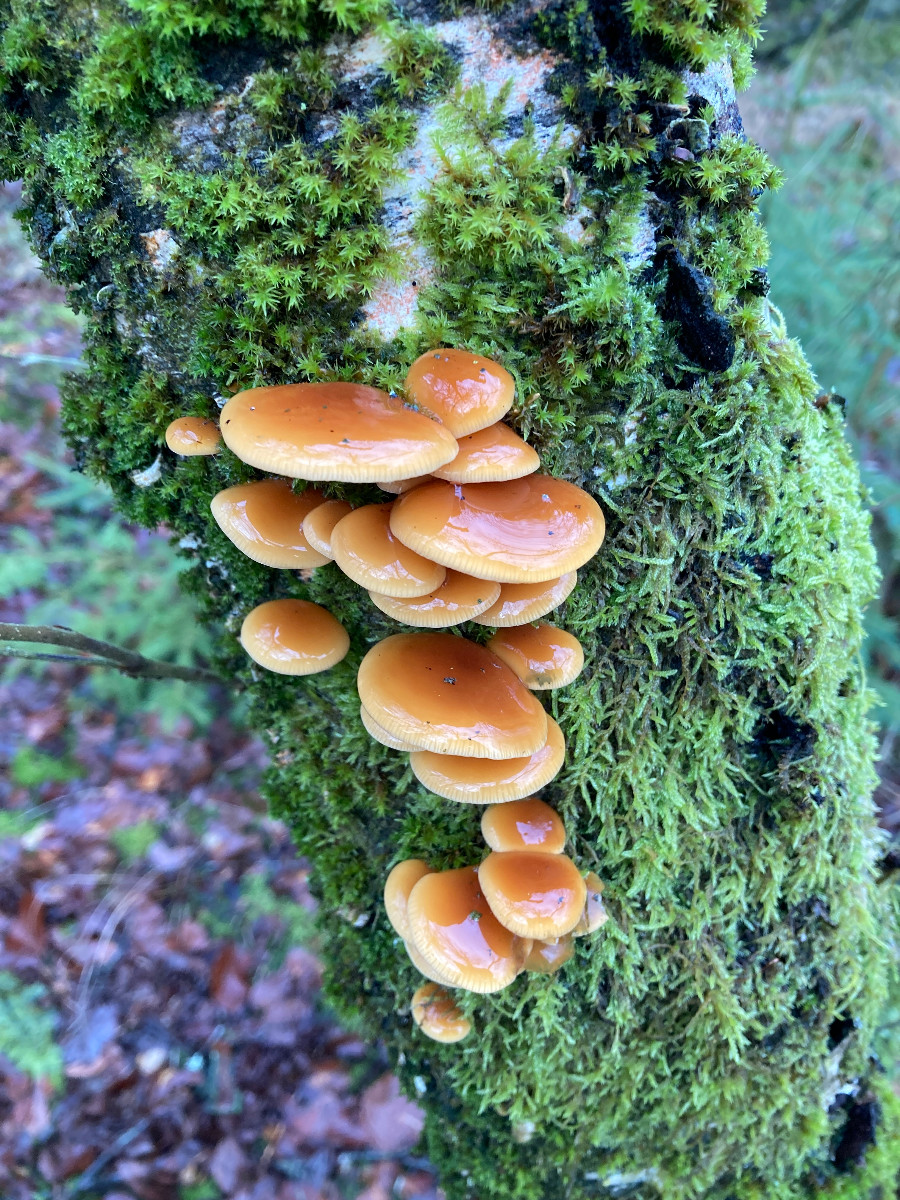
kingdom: Fungi
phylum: Basidiomycota
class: Agaricomycetes
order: Agaricales
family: Physalacriaceae
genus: Flammulina
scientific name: Flammulina velutipes
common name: gul fløjlsfod
